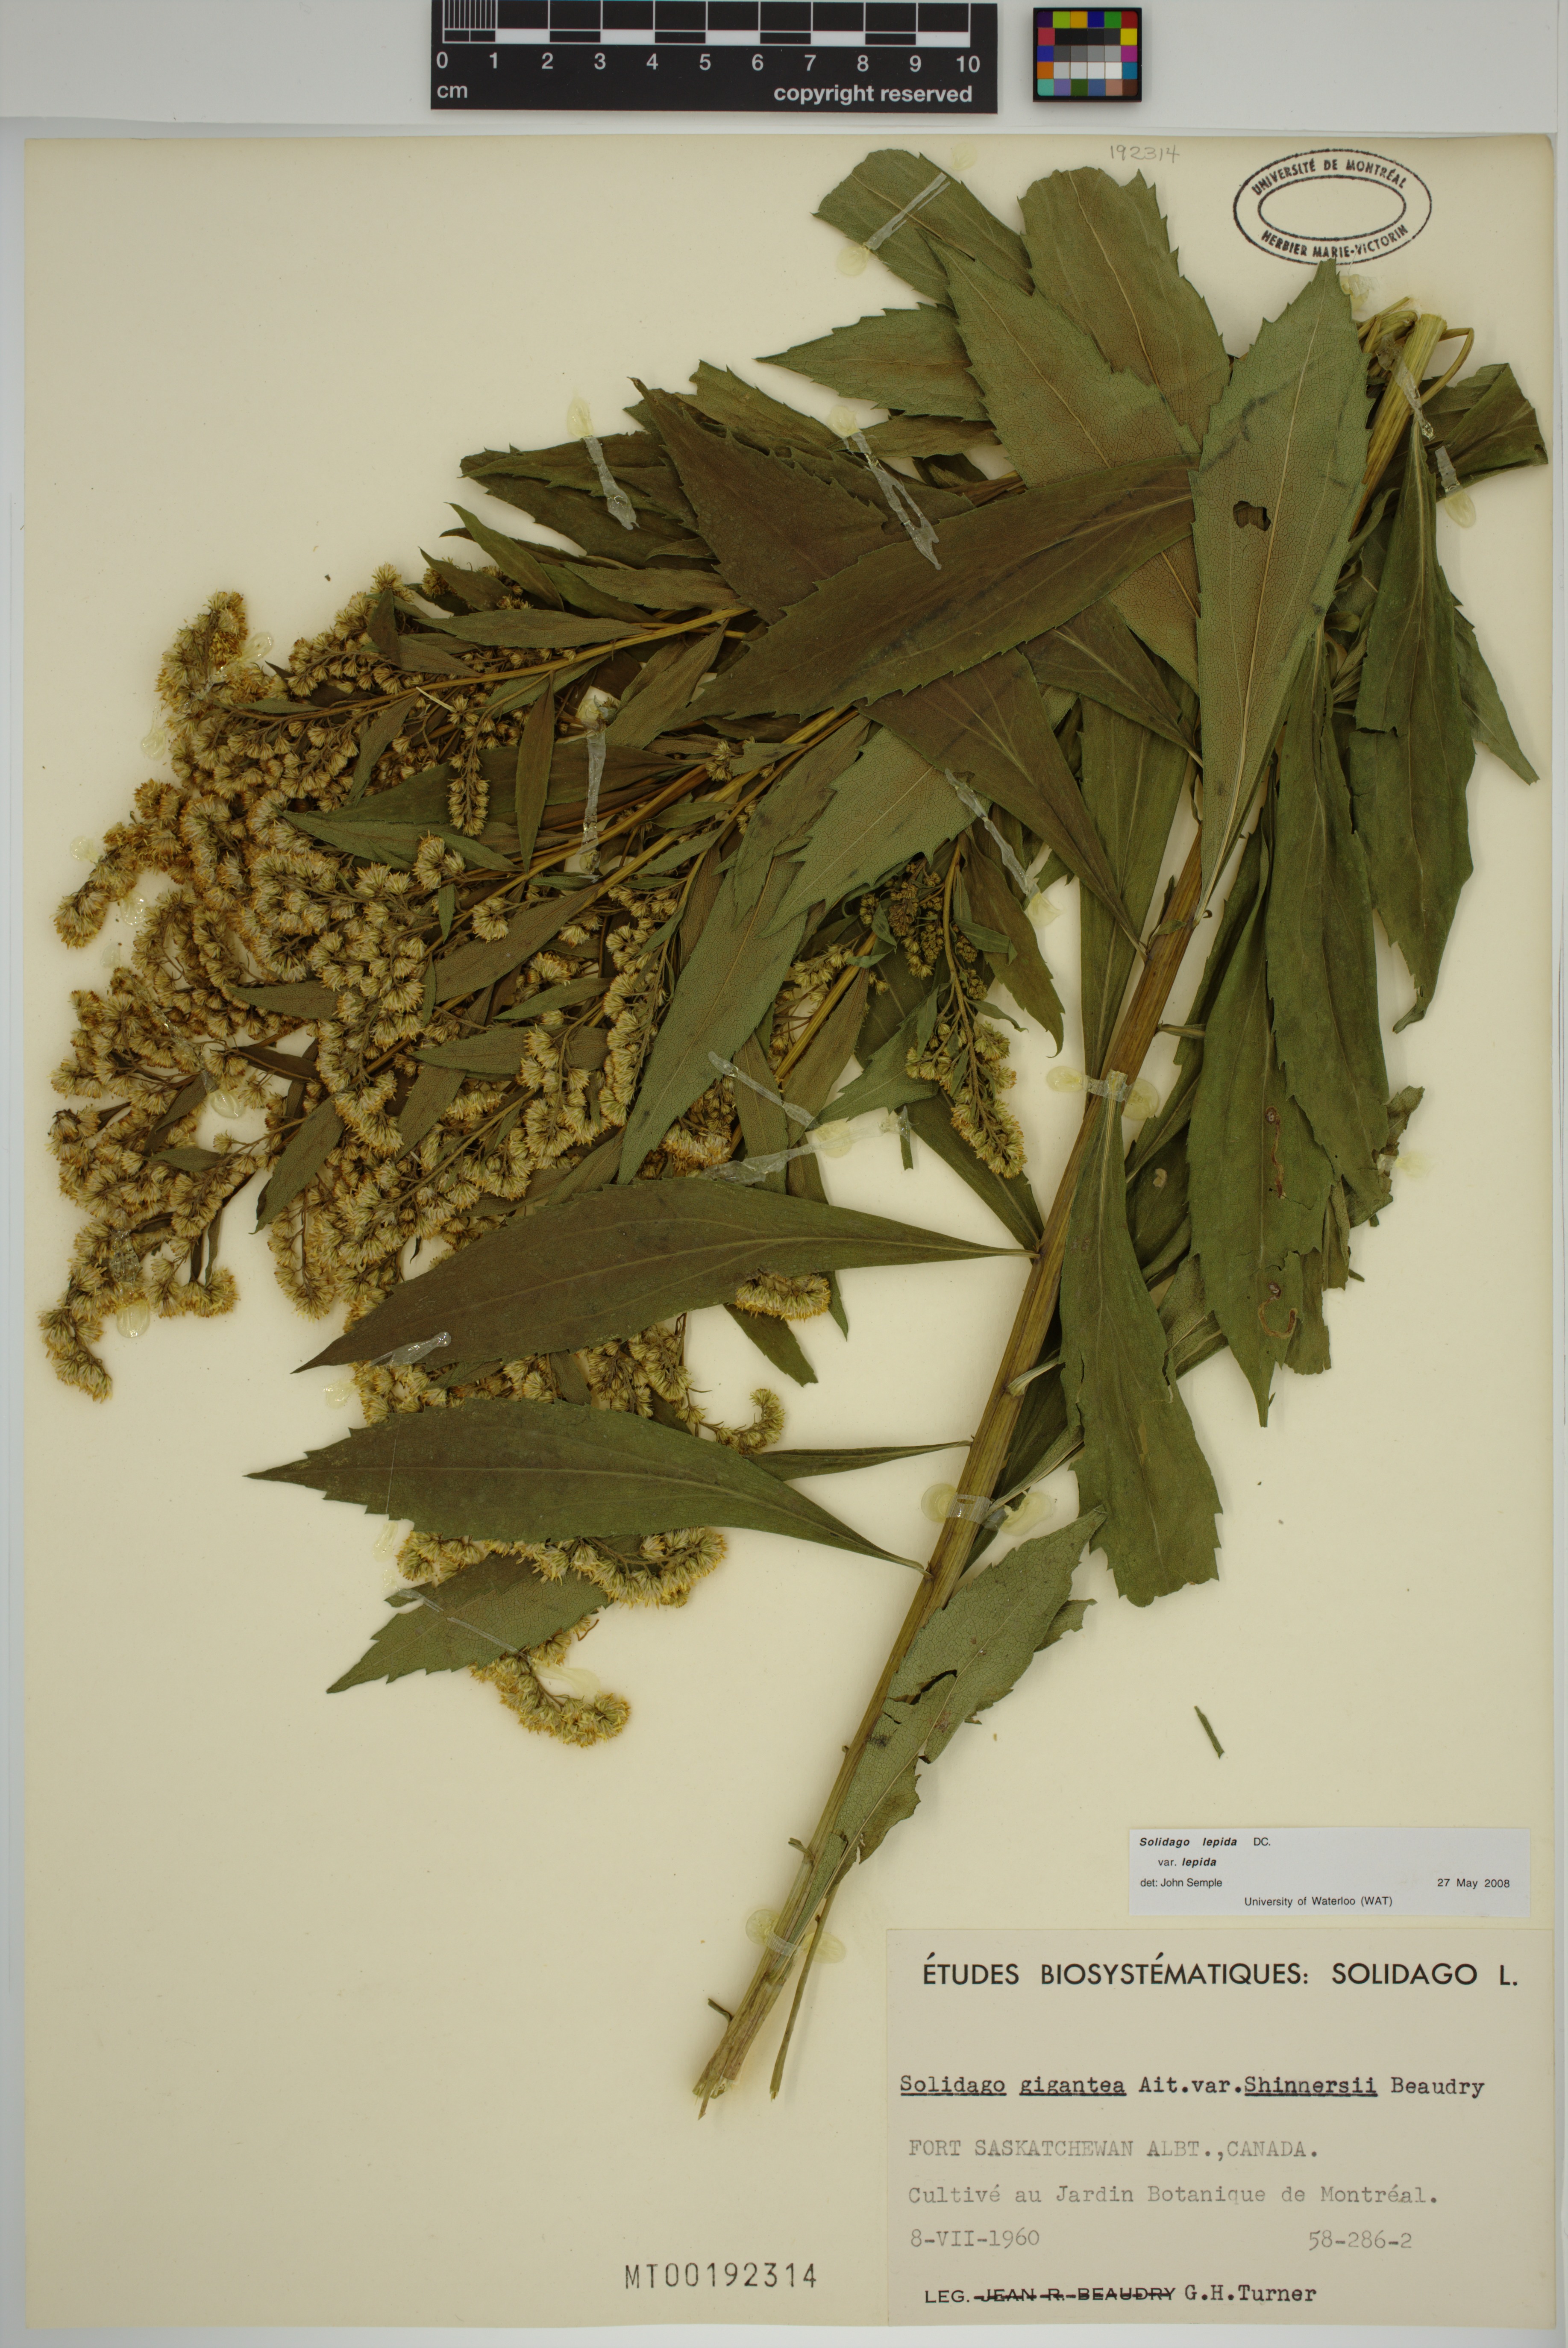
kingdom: Plantae
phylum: Tracheophyta
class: Magnoliopsida
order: Asterales
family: Asteraceae
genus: Solidago
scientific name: Solidago lepida
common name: Western canada goldenrod
